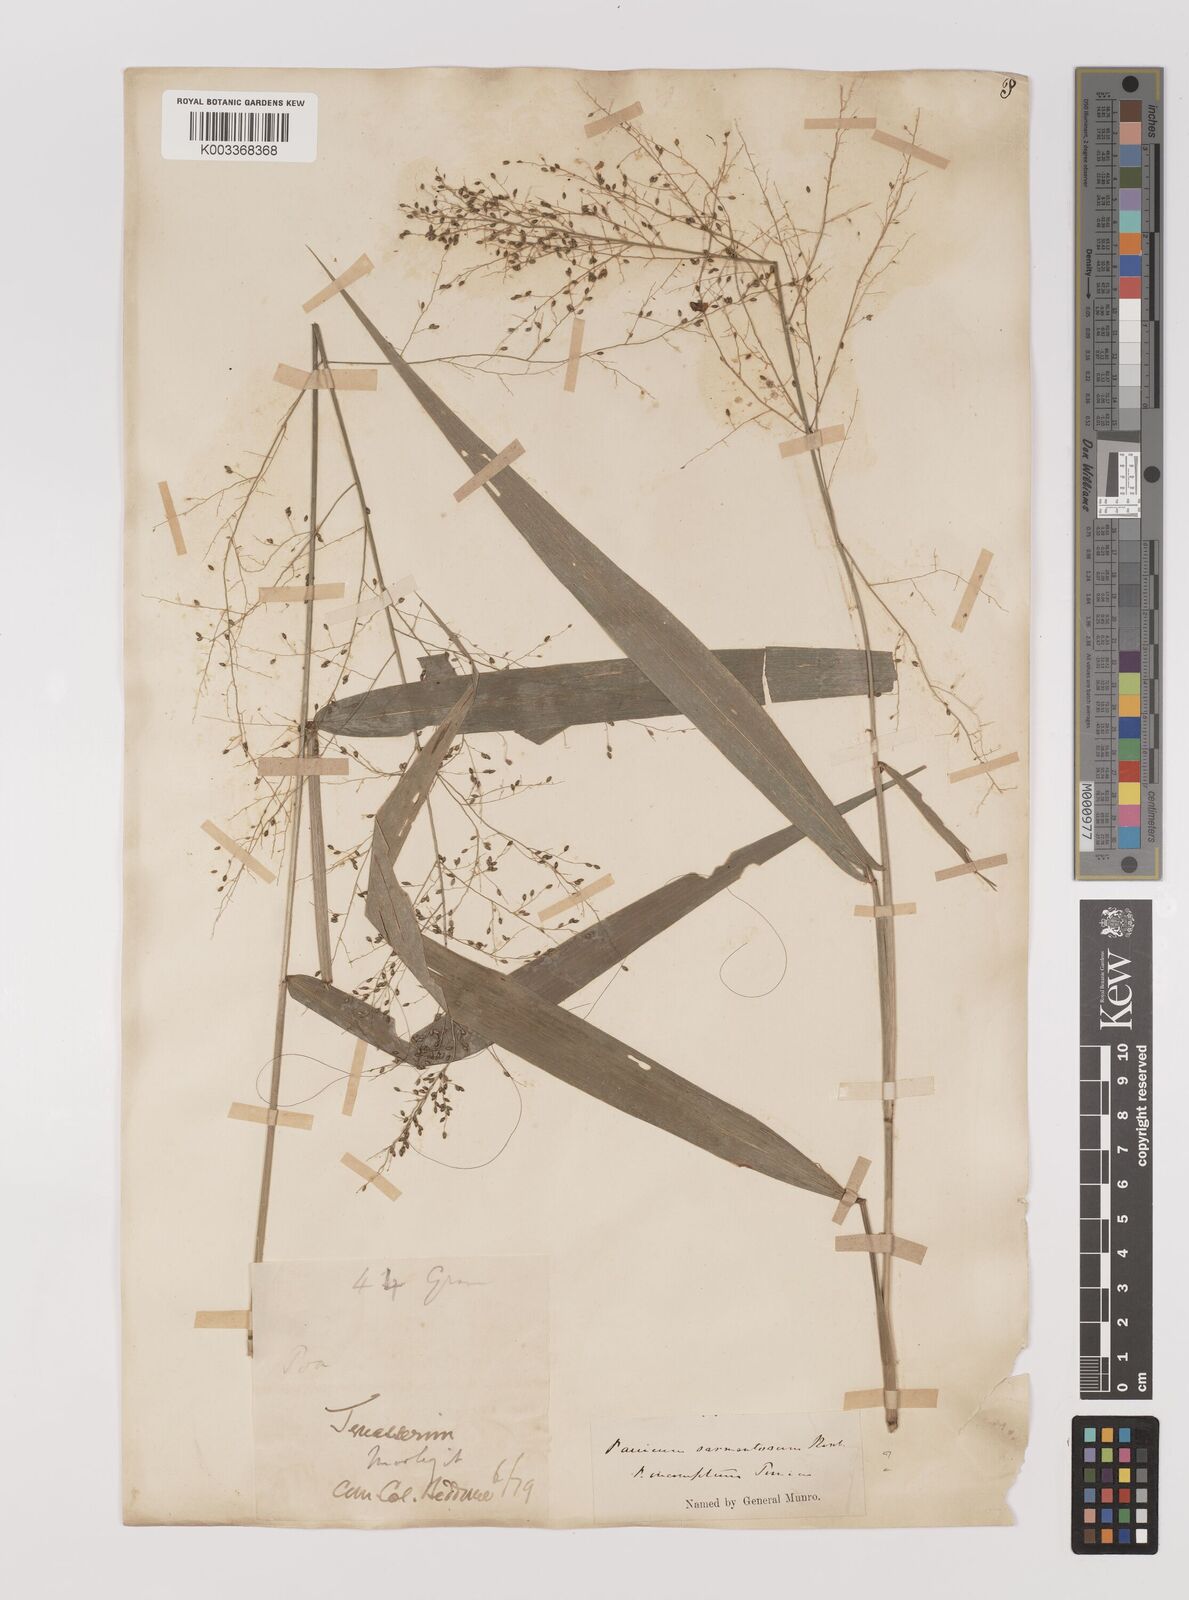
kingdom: Plantae
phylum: Tracheophyta
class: Liliopsida
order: Poales
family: Poaceae
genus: Panicum
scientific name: Panicum sarmentosum
